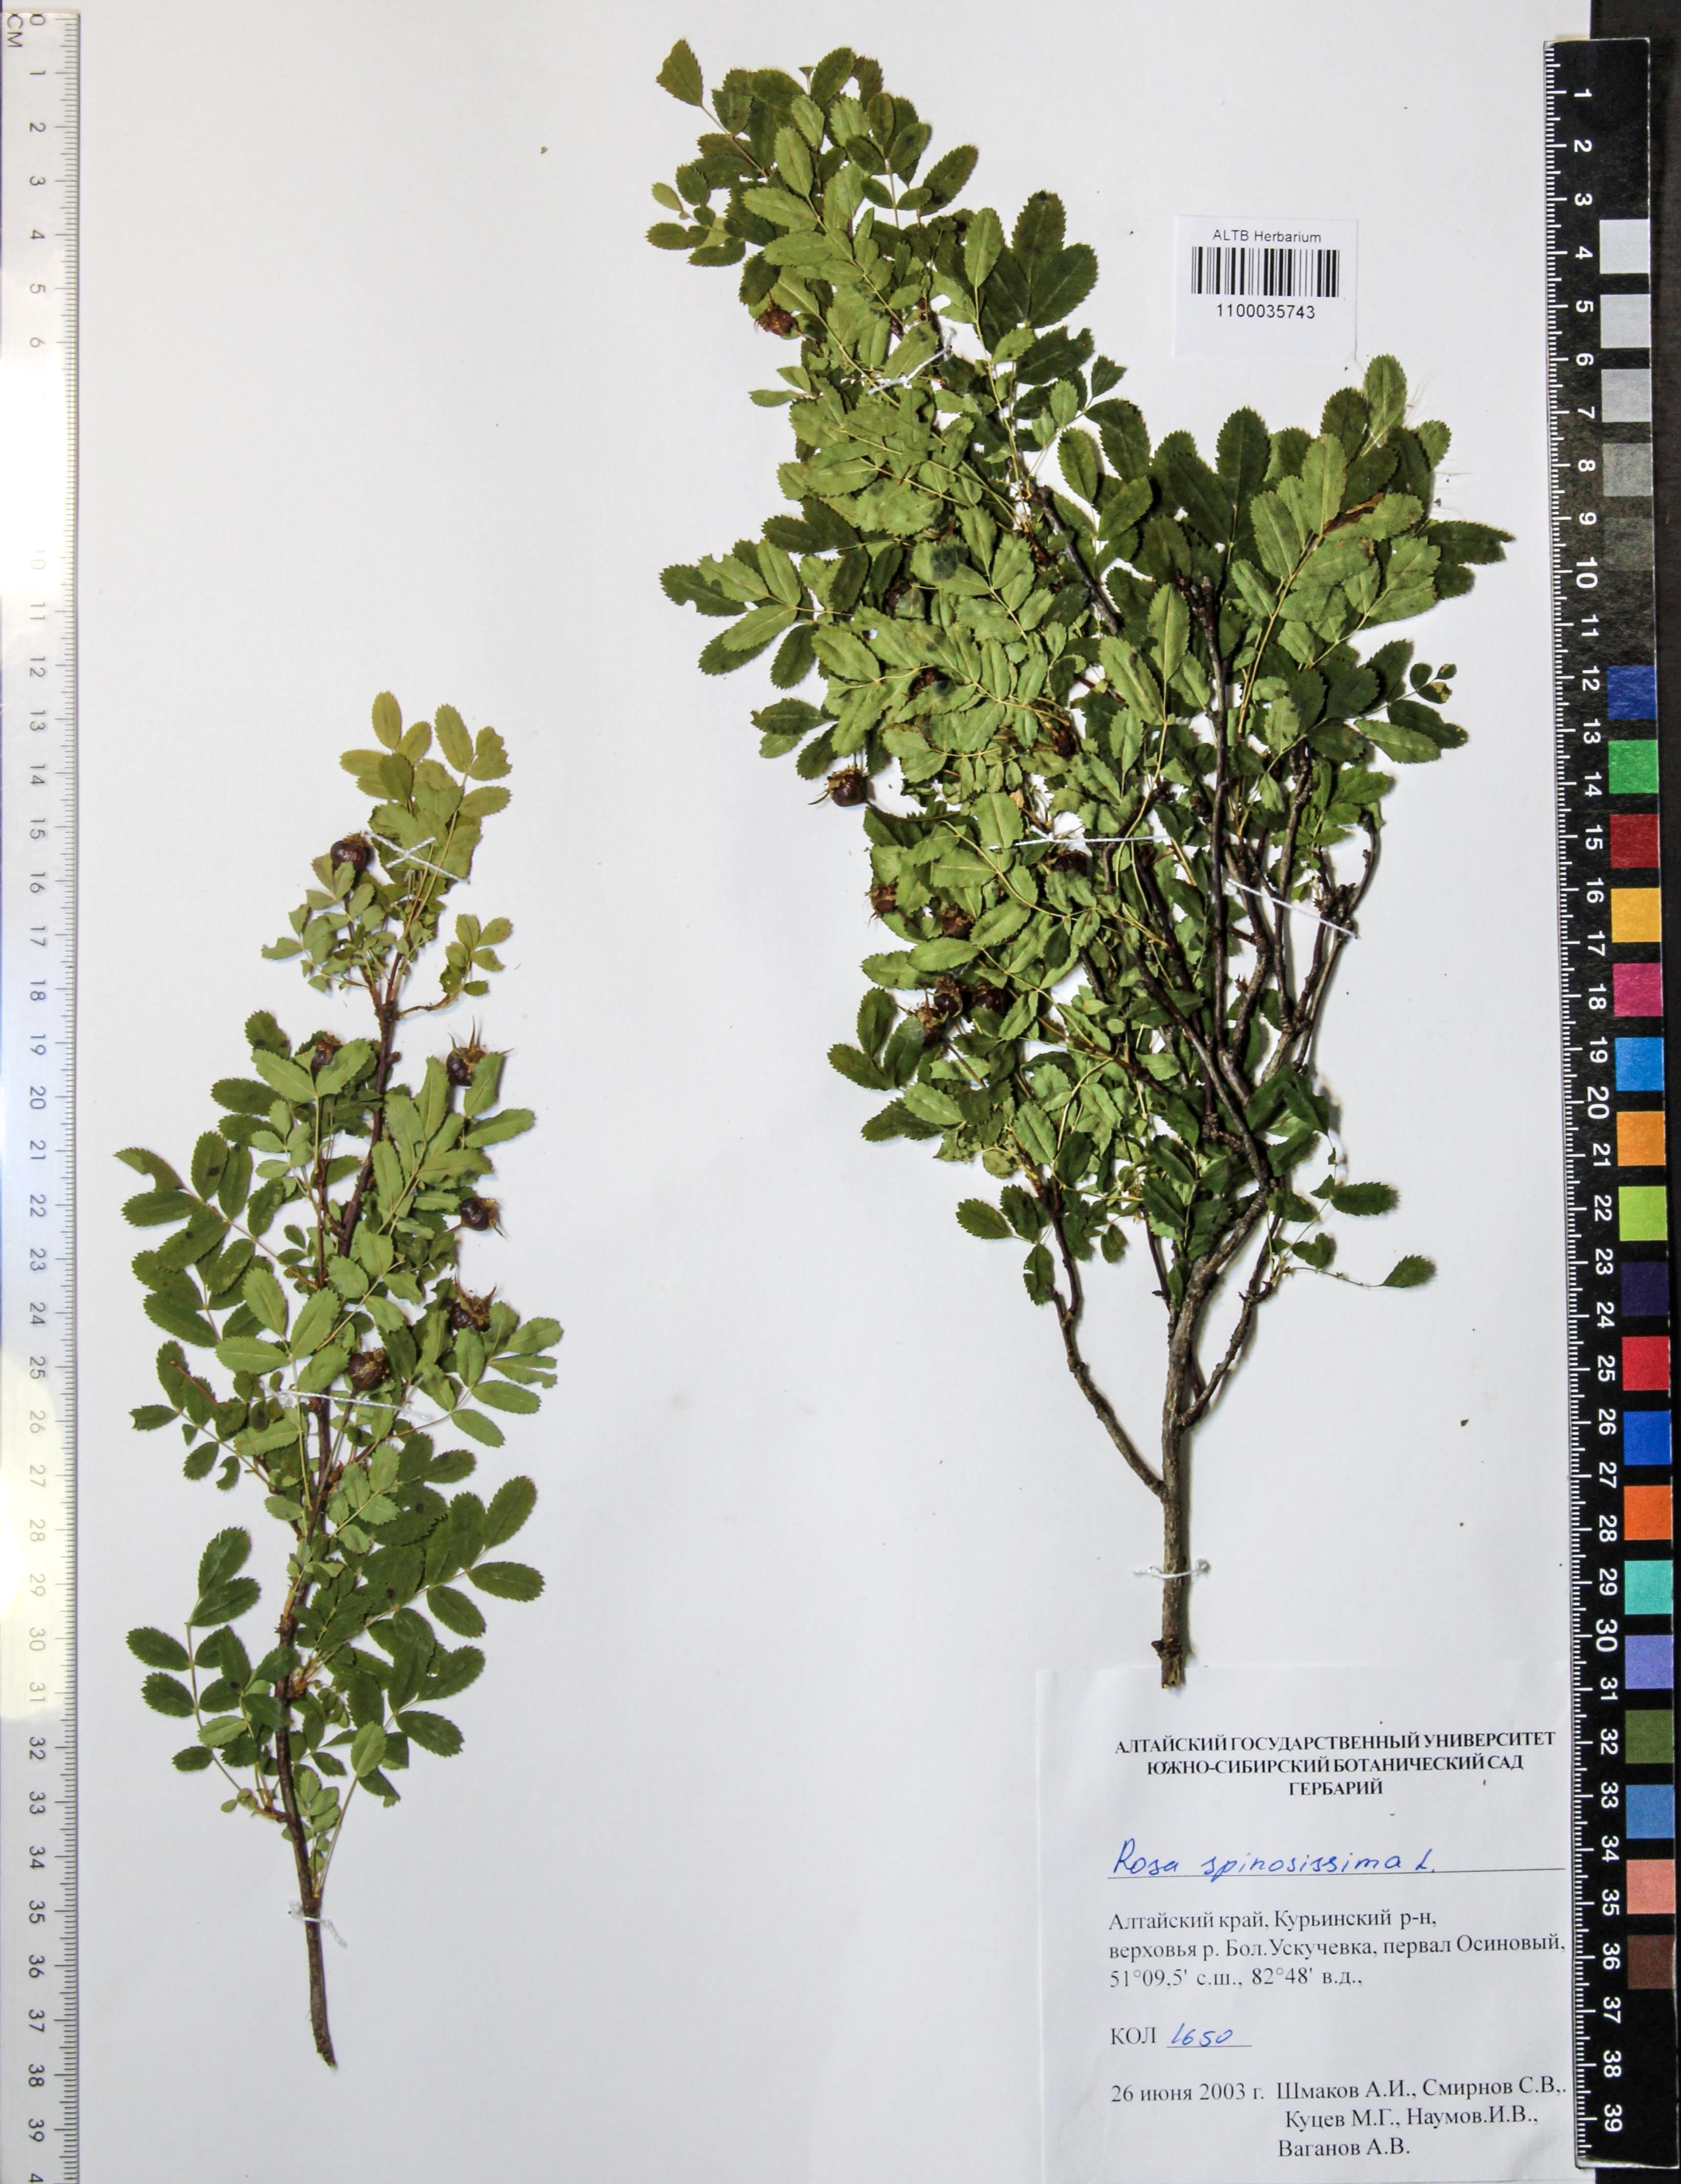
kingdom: Plantae
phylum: Tracheophyta
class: Magnoliopsida
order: Rosales
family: Rosaceae
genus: Rosa
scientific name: Rosa spinosissima
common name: Burnet rose
